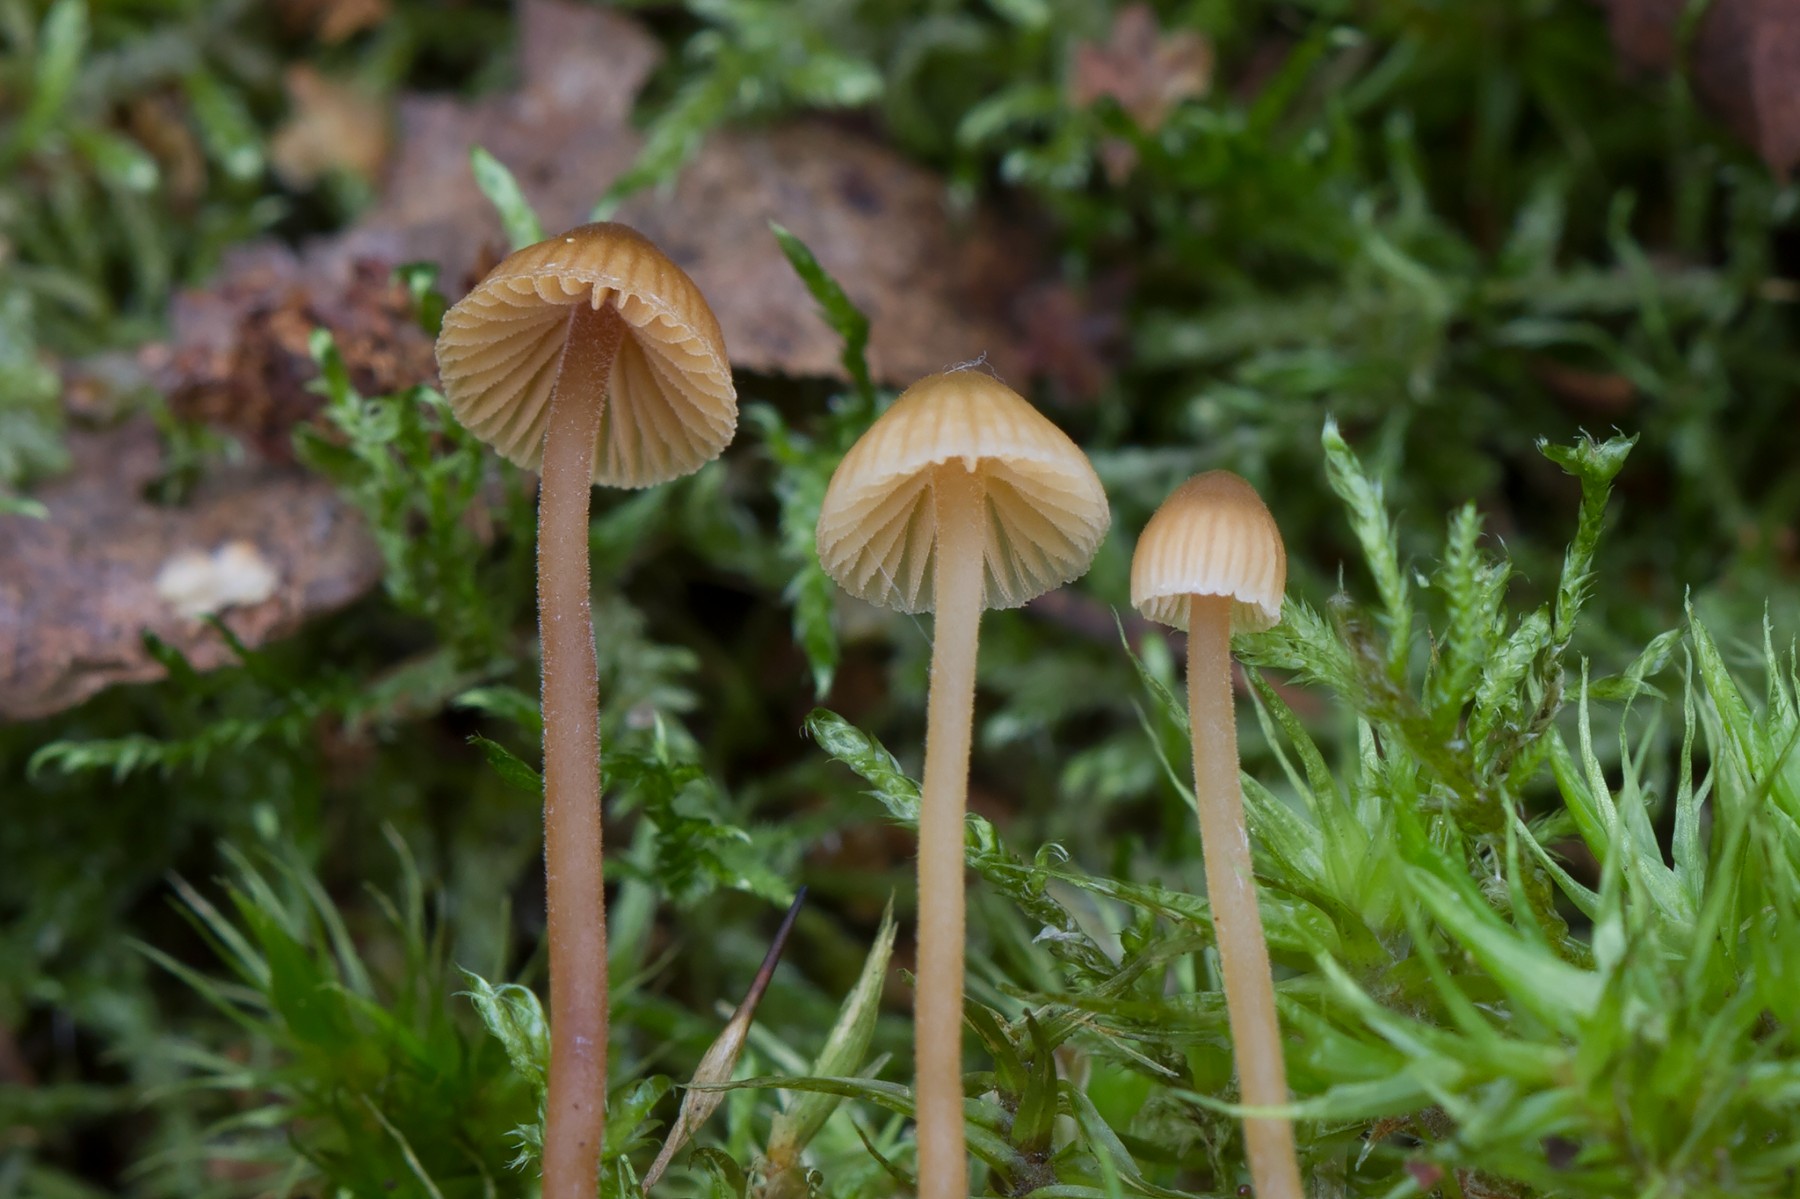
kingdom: Fungi
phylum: Basidiomycota
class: Agaricomycetes
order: Agaricales
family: Hymenogastraceae
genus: Galerina
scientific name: Galerina atkinsoniana
